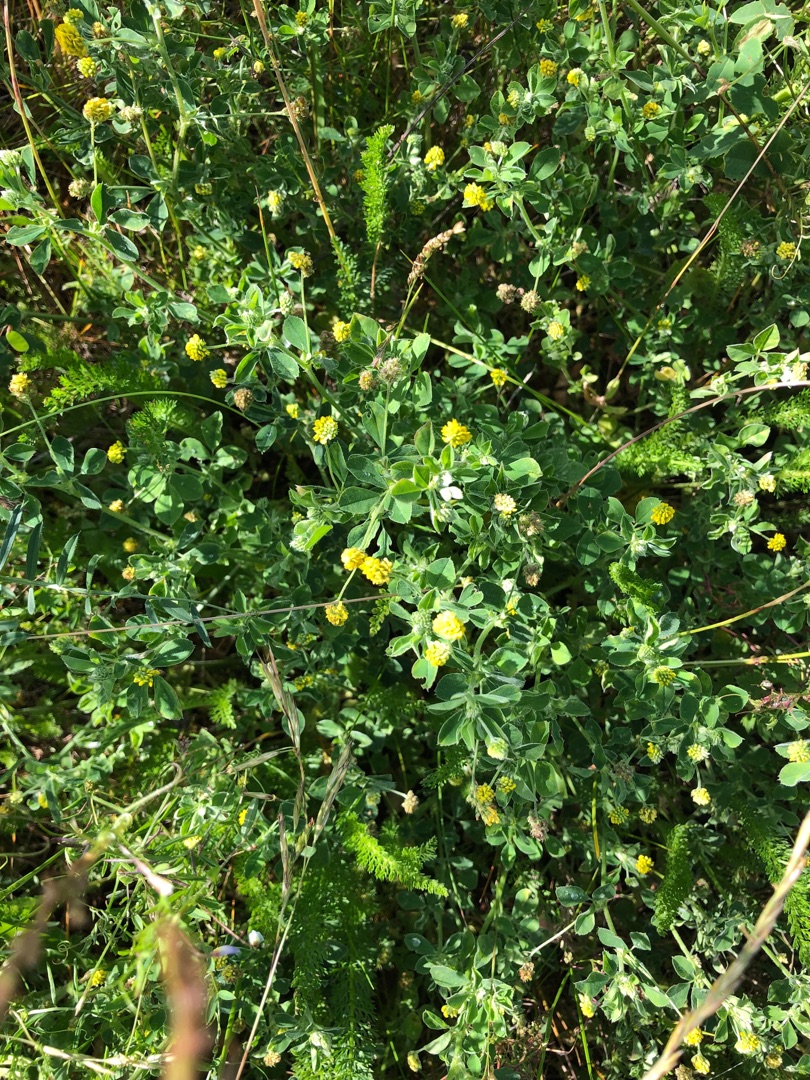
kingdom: Plantae
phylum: Tracheophyta
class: Magnoliopsida
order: Fabales
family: Fabaceae
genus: Medicago
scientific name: Medicago lupulina
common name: Humle-sneglebælg
